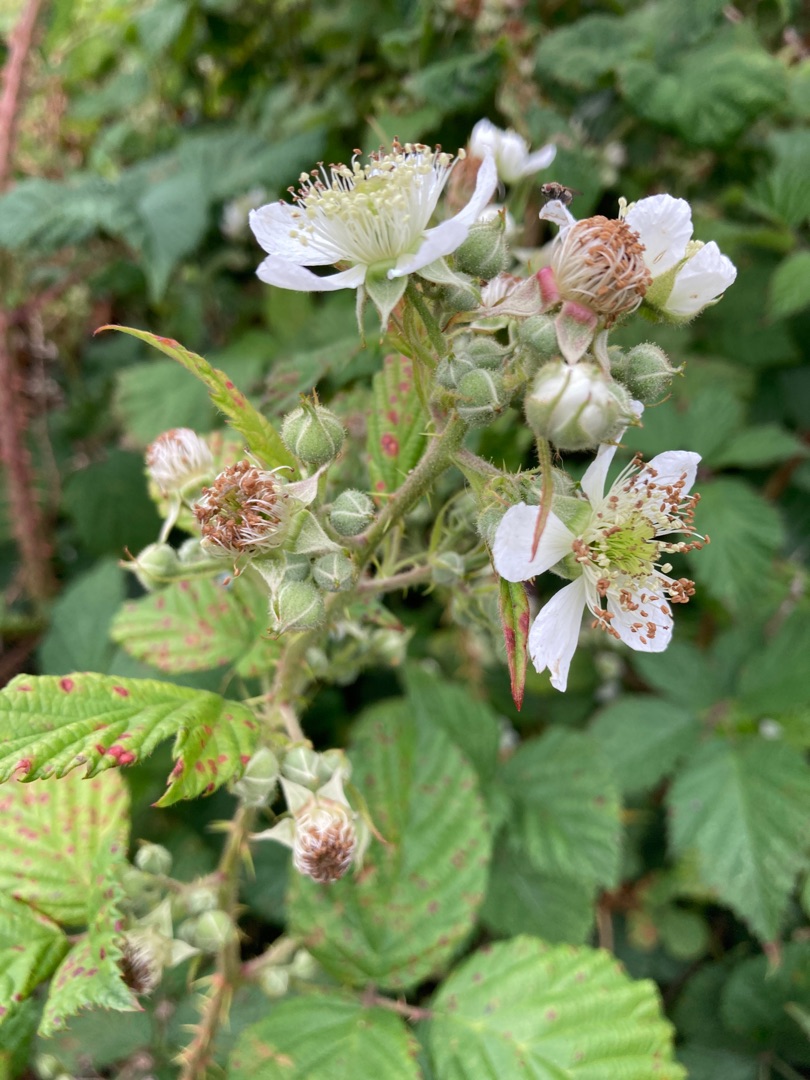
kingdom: Plantae
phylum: Tracheophyta
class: Magnoliopsida
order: Rosales
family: Rosaceae
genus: Rubus
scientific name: Rubus
